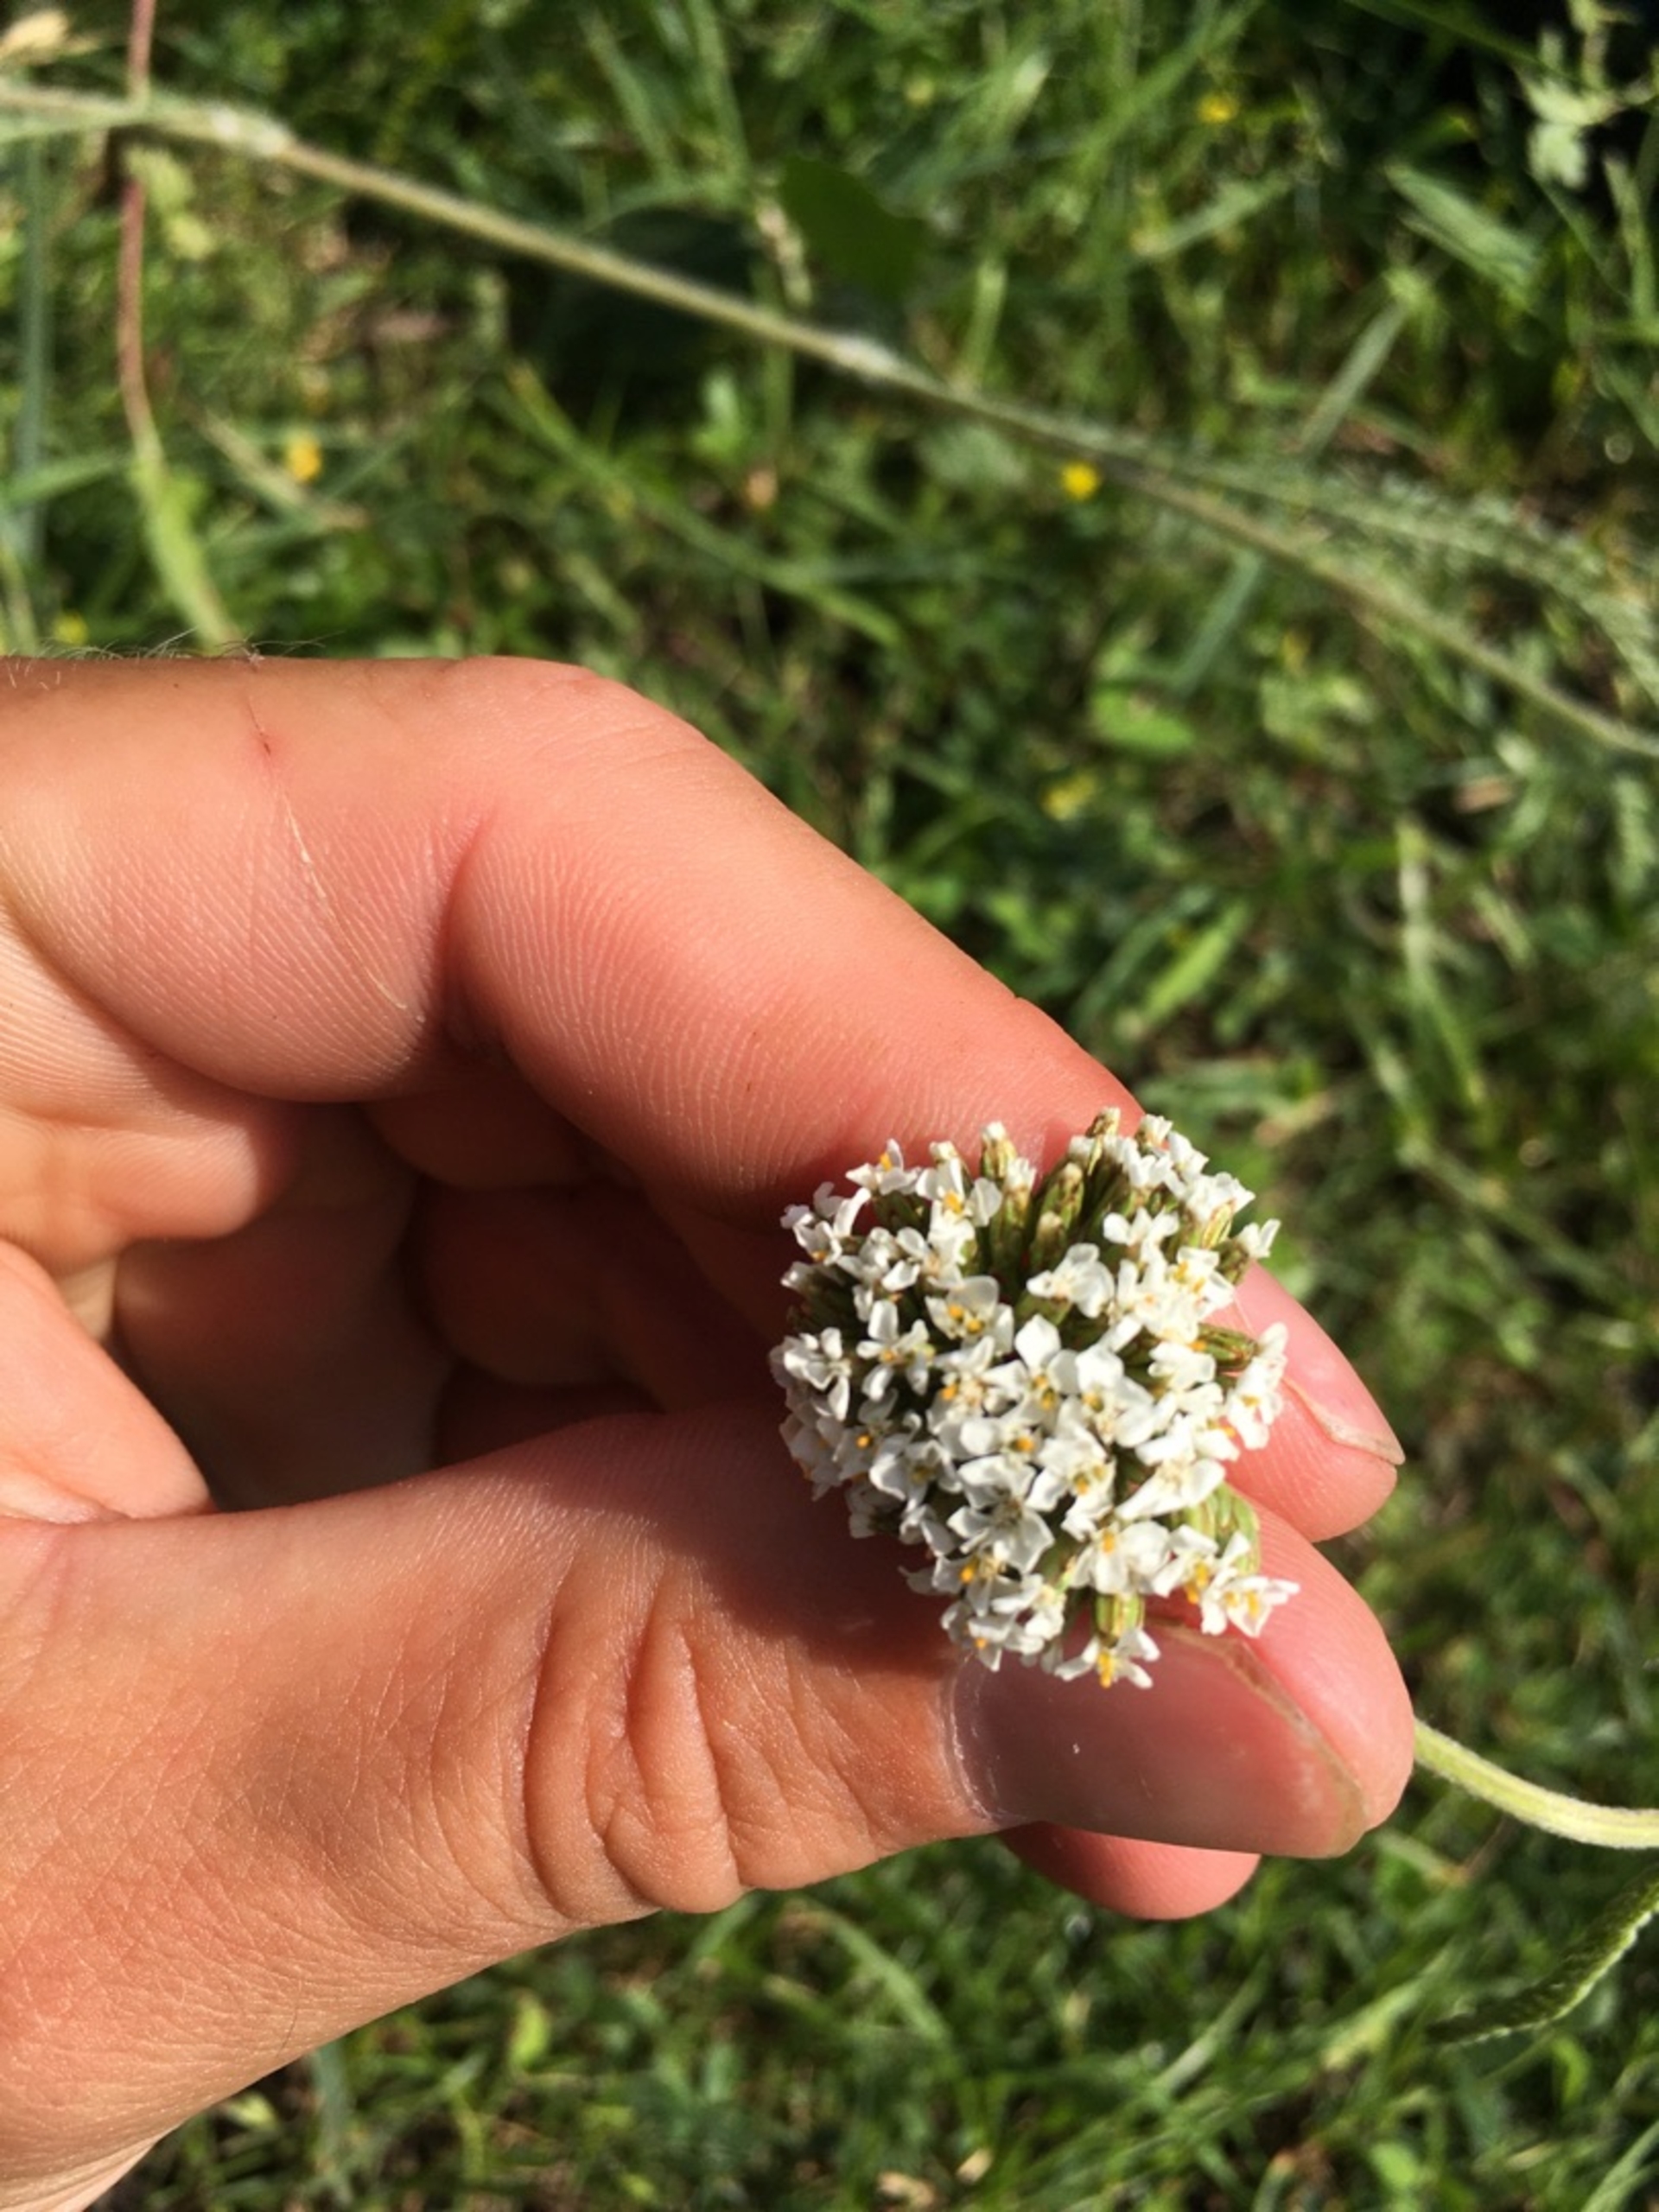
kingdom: Plantae
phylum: Tracheophyta
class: Magnoliopsida
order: Asterales
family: Asteraceae
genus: Achillea
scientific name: Achillea millefolium
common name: Almindelig røllike
